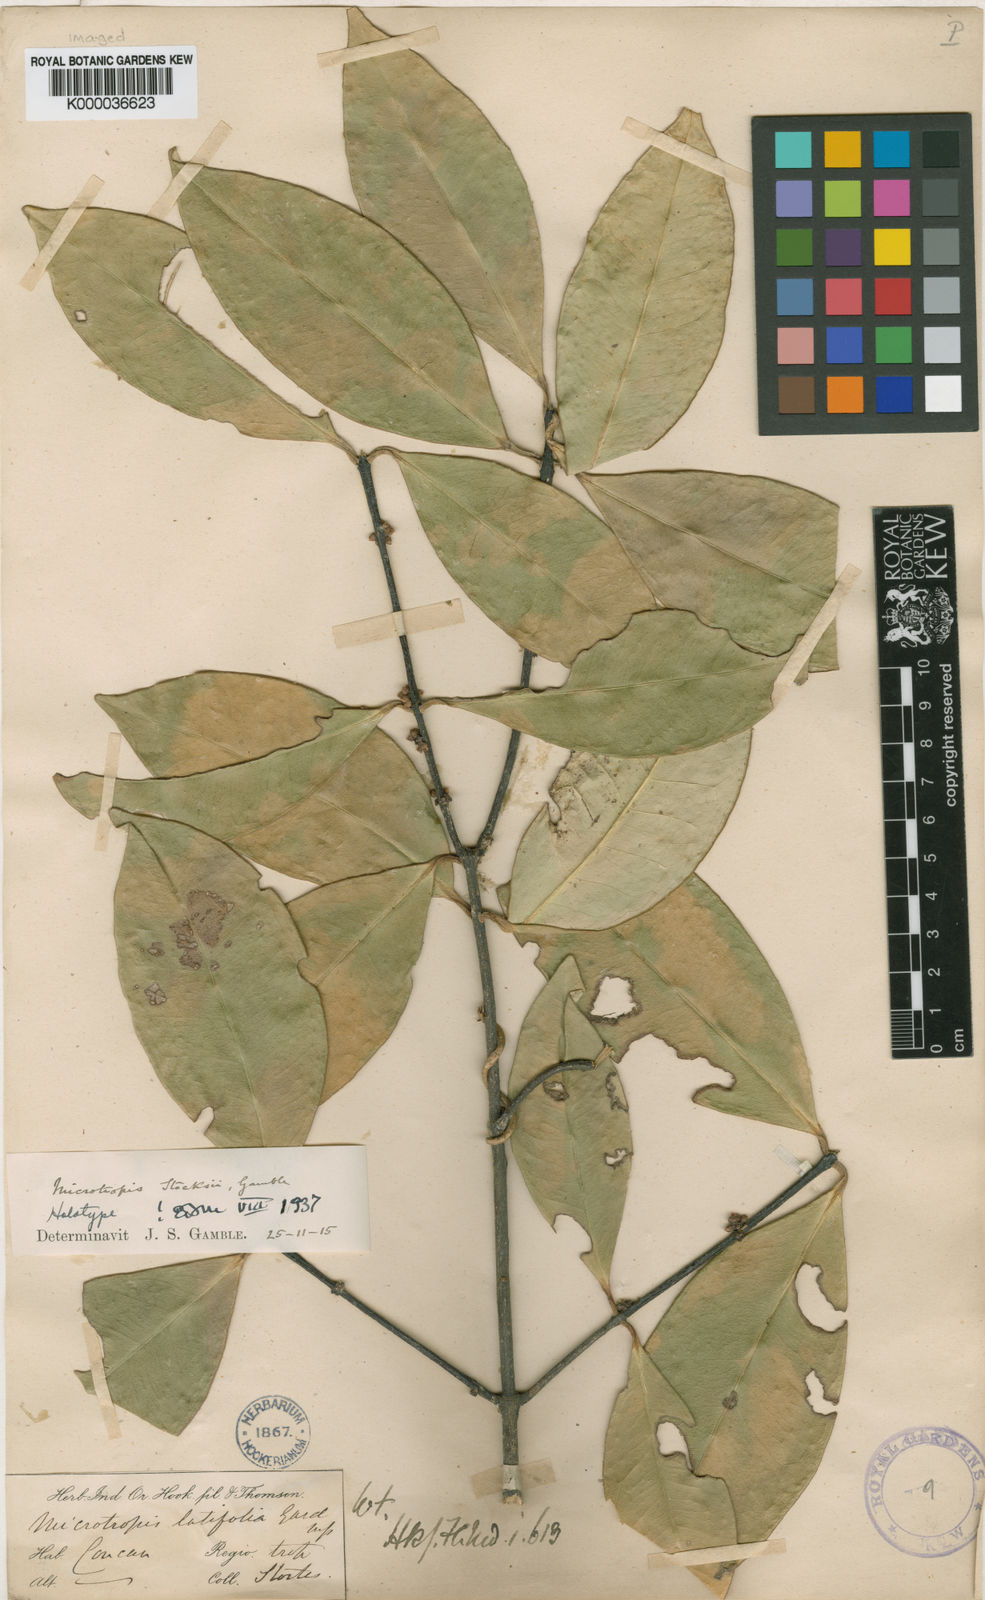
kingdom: Plantae
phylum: Tracheophyta
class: Magnoliopsida
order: Celastrales
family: Celastraceae
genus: Microtropis
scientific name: Microtropis stocksii
